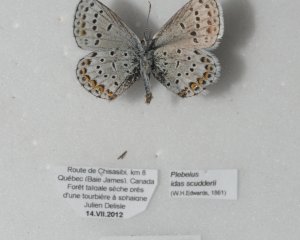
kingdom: Animalia
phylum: Arthropoda
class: Insecta
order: Lepidoptera
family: Lycaenidae
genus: Lycaeides
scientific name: Lycaeides idas
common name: Northern Blue
